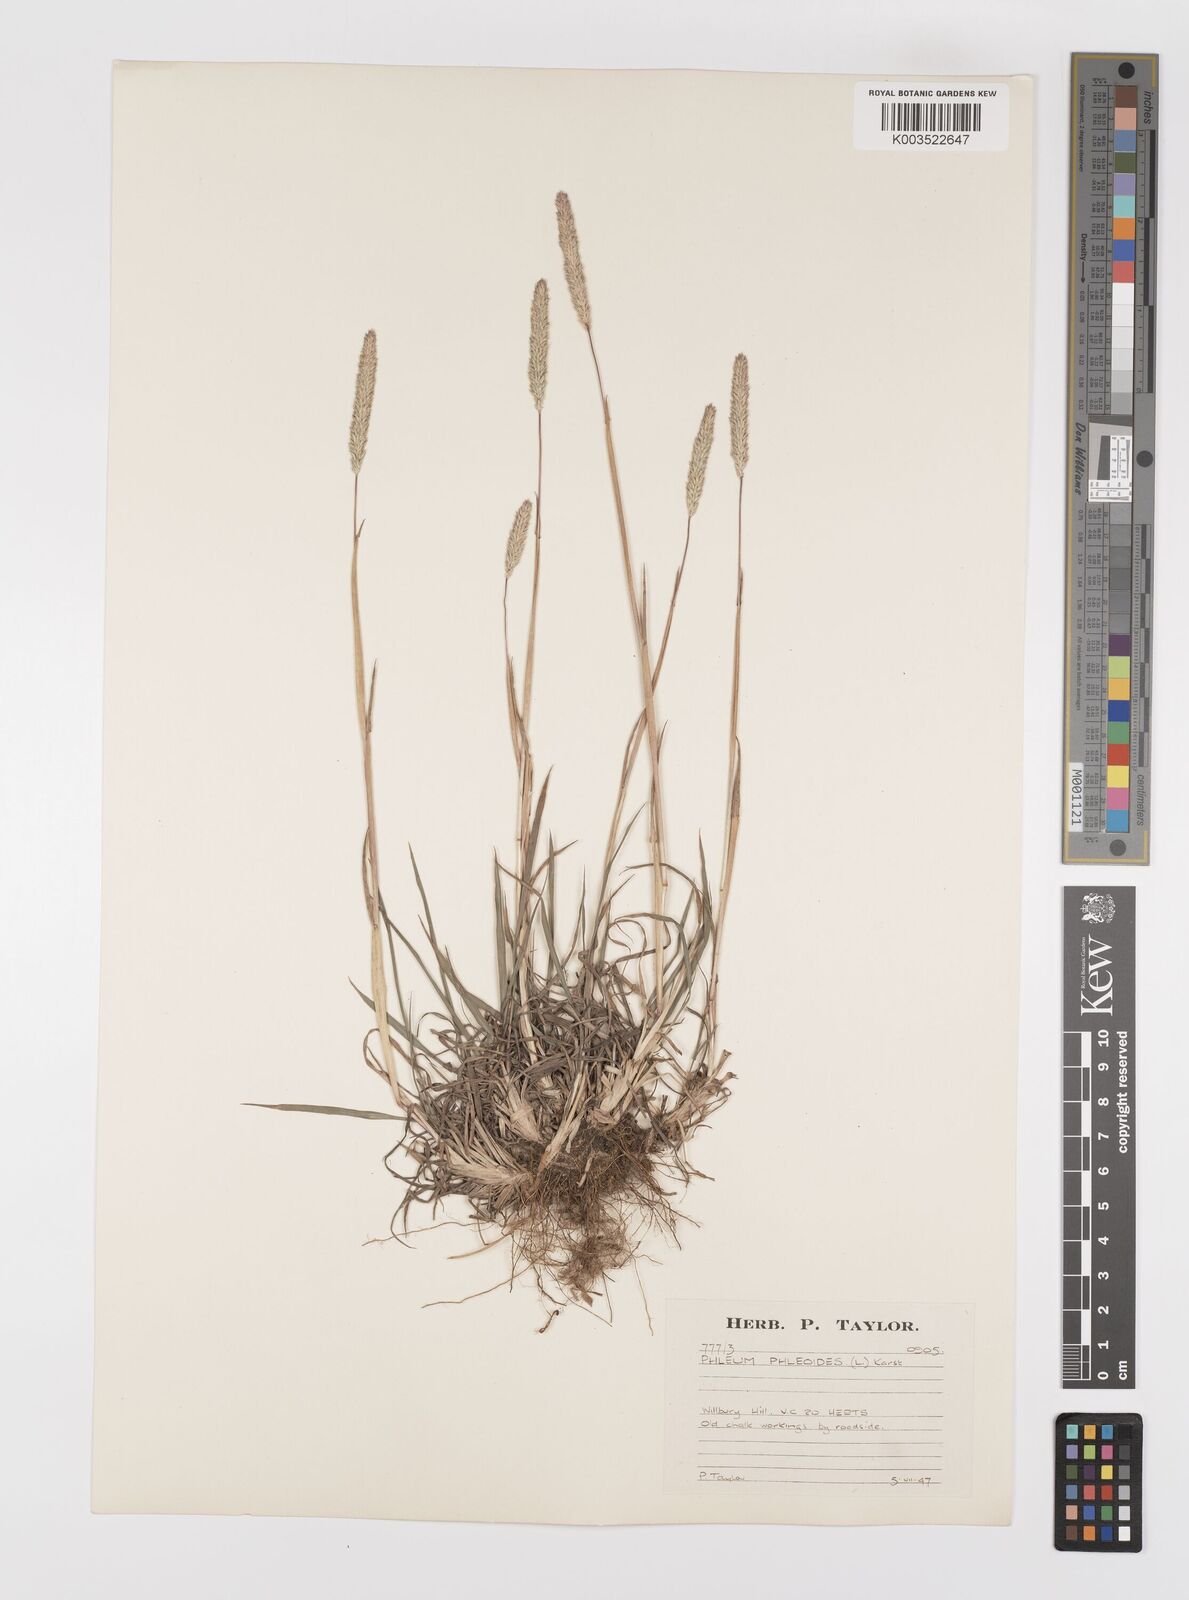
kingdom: Plantae
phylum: Tracheophyta
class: Liliopsida
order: Poales
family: Poaceae
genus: Phleum
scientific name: Phleum phleoides
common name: Purple-stem cat's-tail
